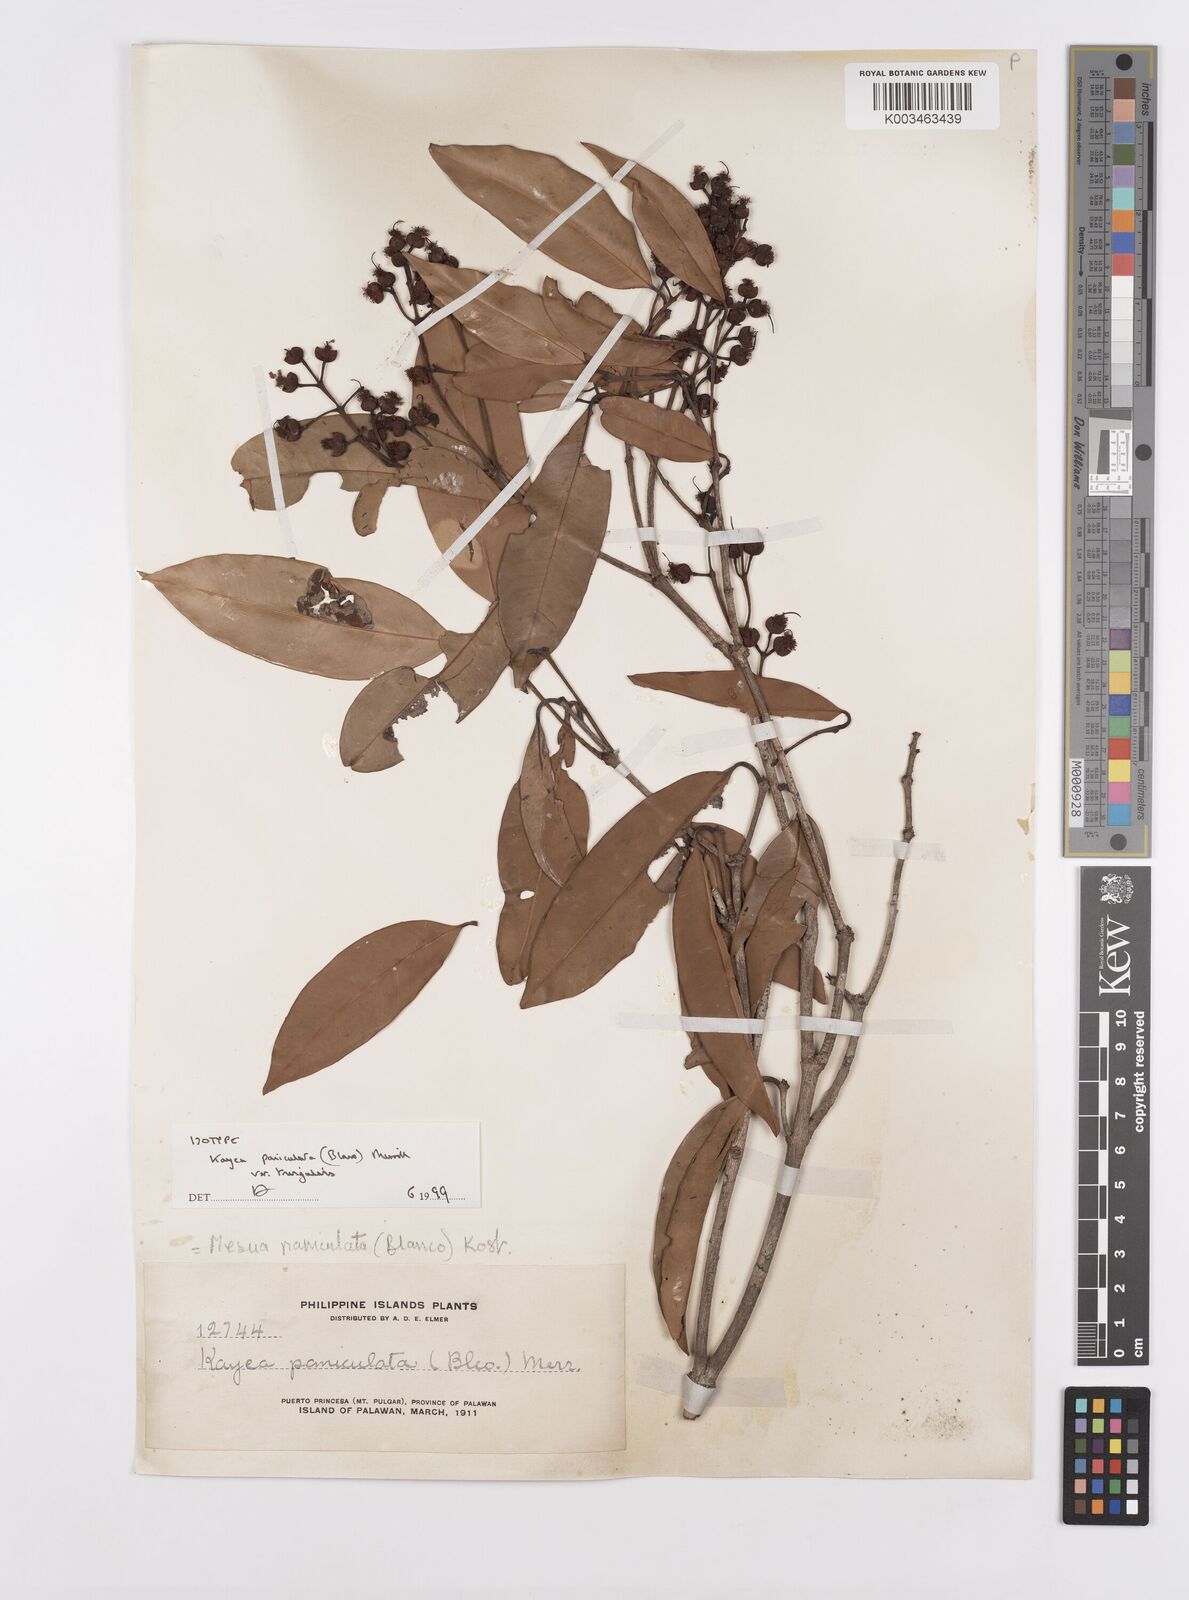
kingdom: Plantae
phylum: Tracheophyta
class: Magnoliopsida
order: Malpighiales
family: Calophyllaceae
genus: Kayea
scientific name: Kayea
